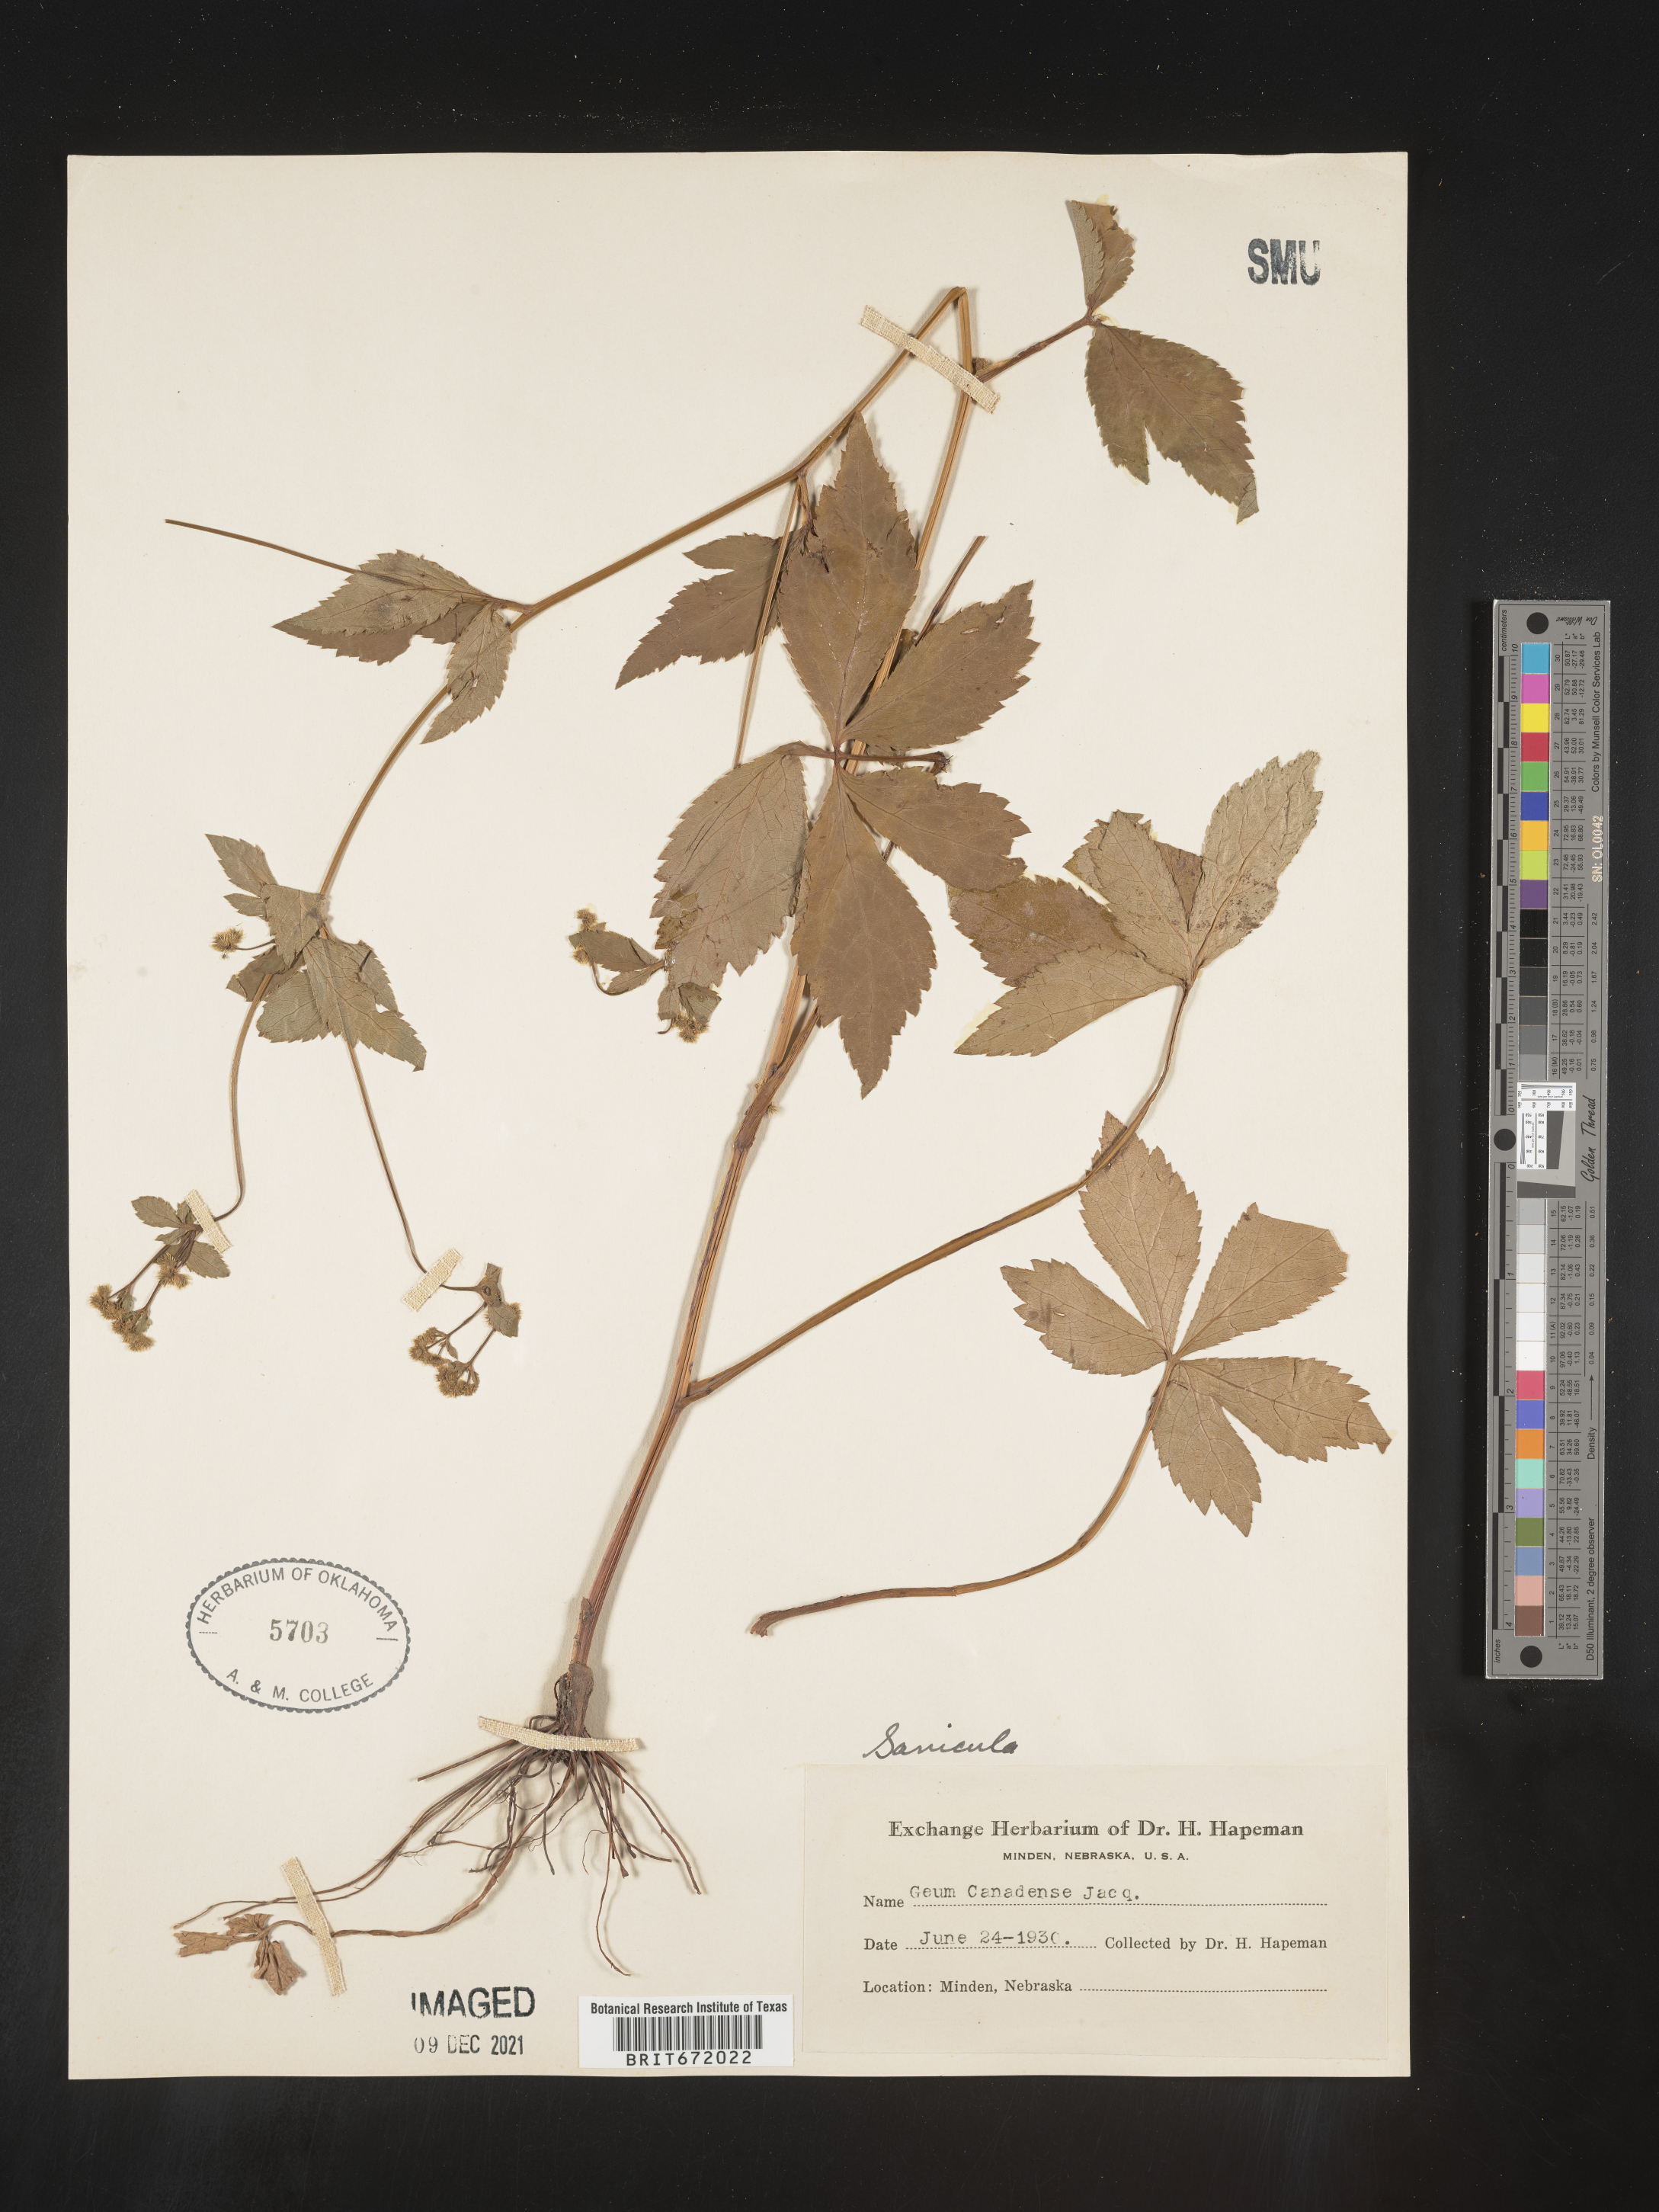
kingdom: Plantae
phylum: Tracheophyta
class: Magnoliopsida
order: Apiales
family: Apiaceae
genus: Sanicula
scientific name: Sanicula canadensis
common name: Canada sanicle
